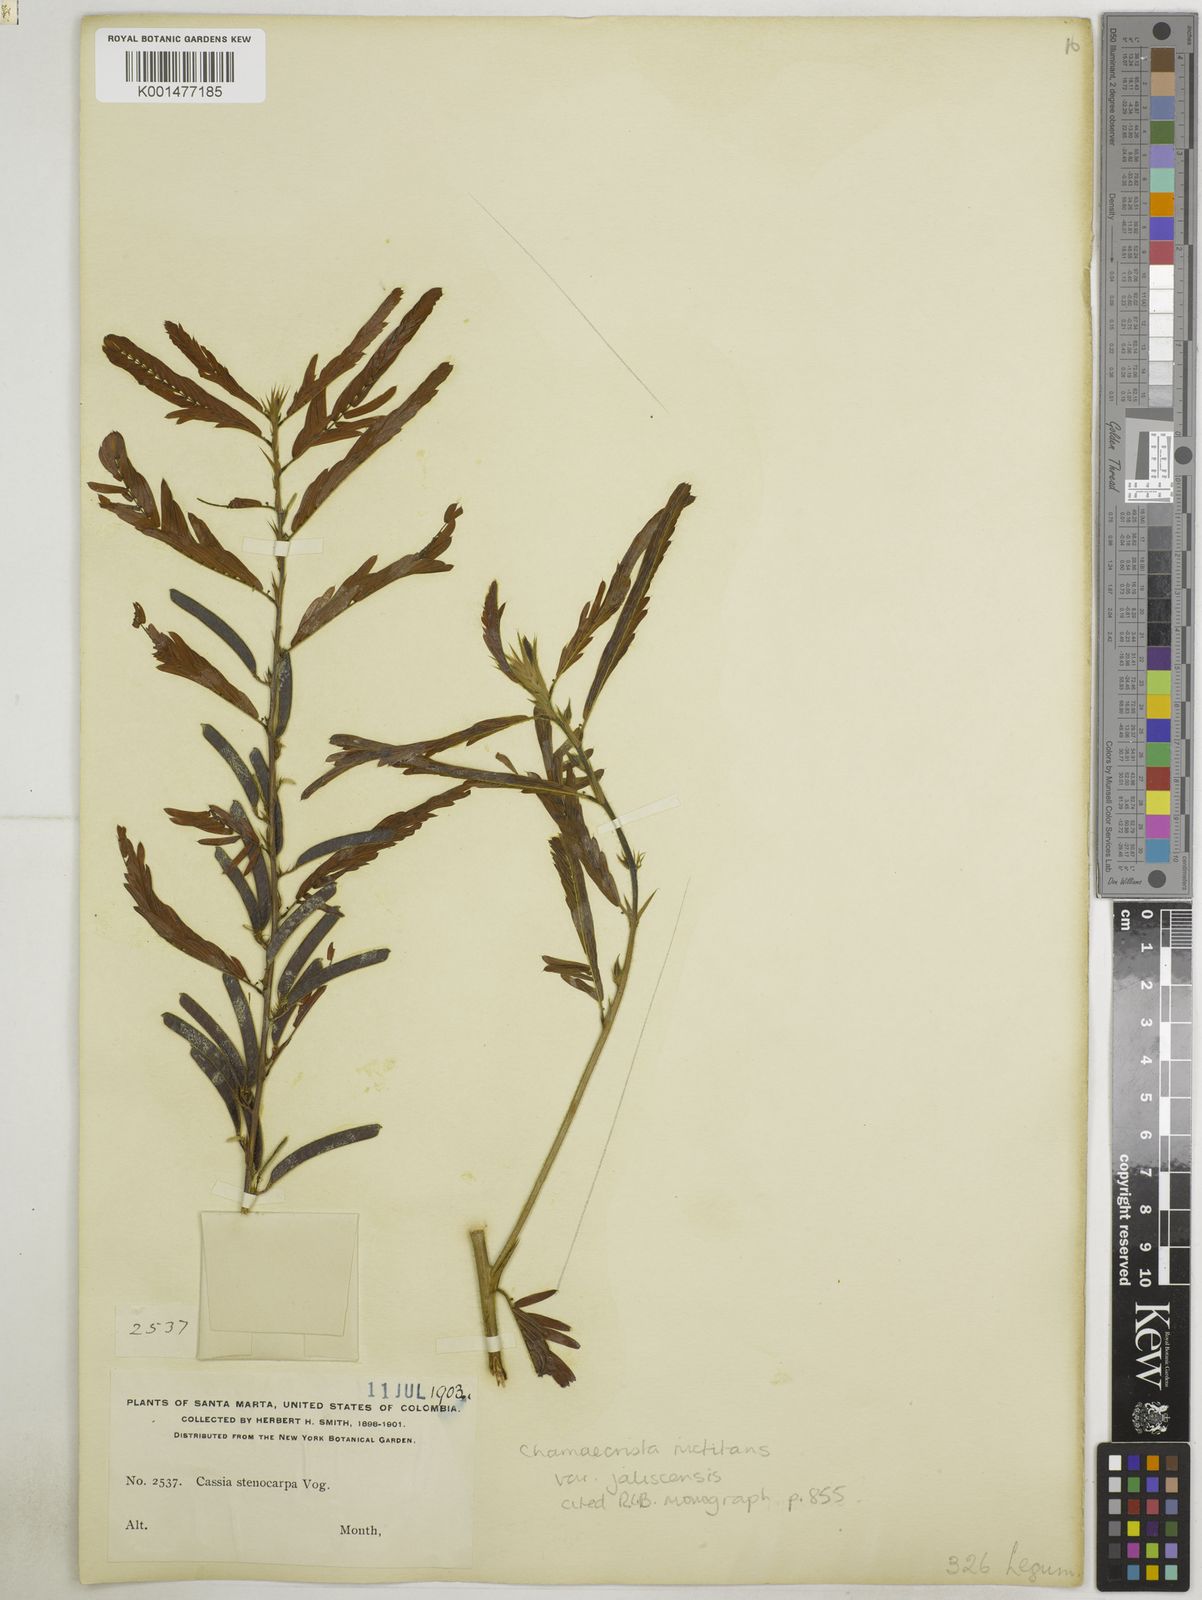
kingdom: Plantae
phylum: Tracheophyta
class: Magnoliopsida
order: Fabales
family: Fabaceae
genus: Chamaecrista
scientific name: Chamaecrista nictitans
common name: Sensitive cassia
